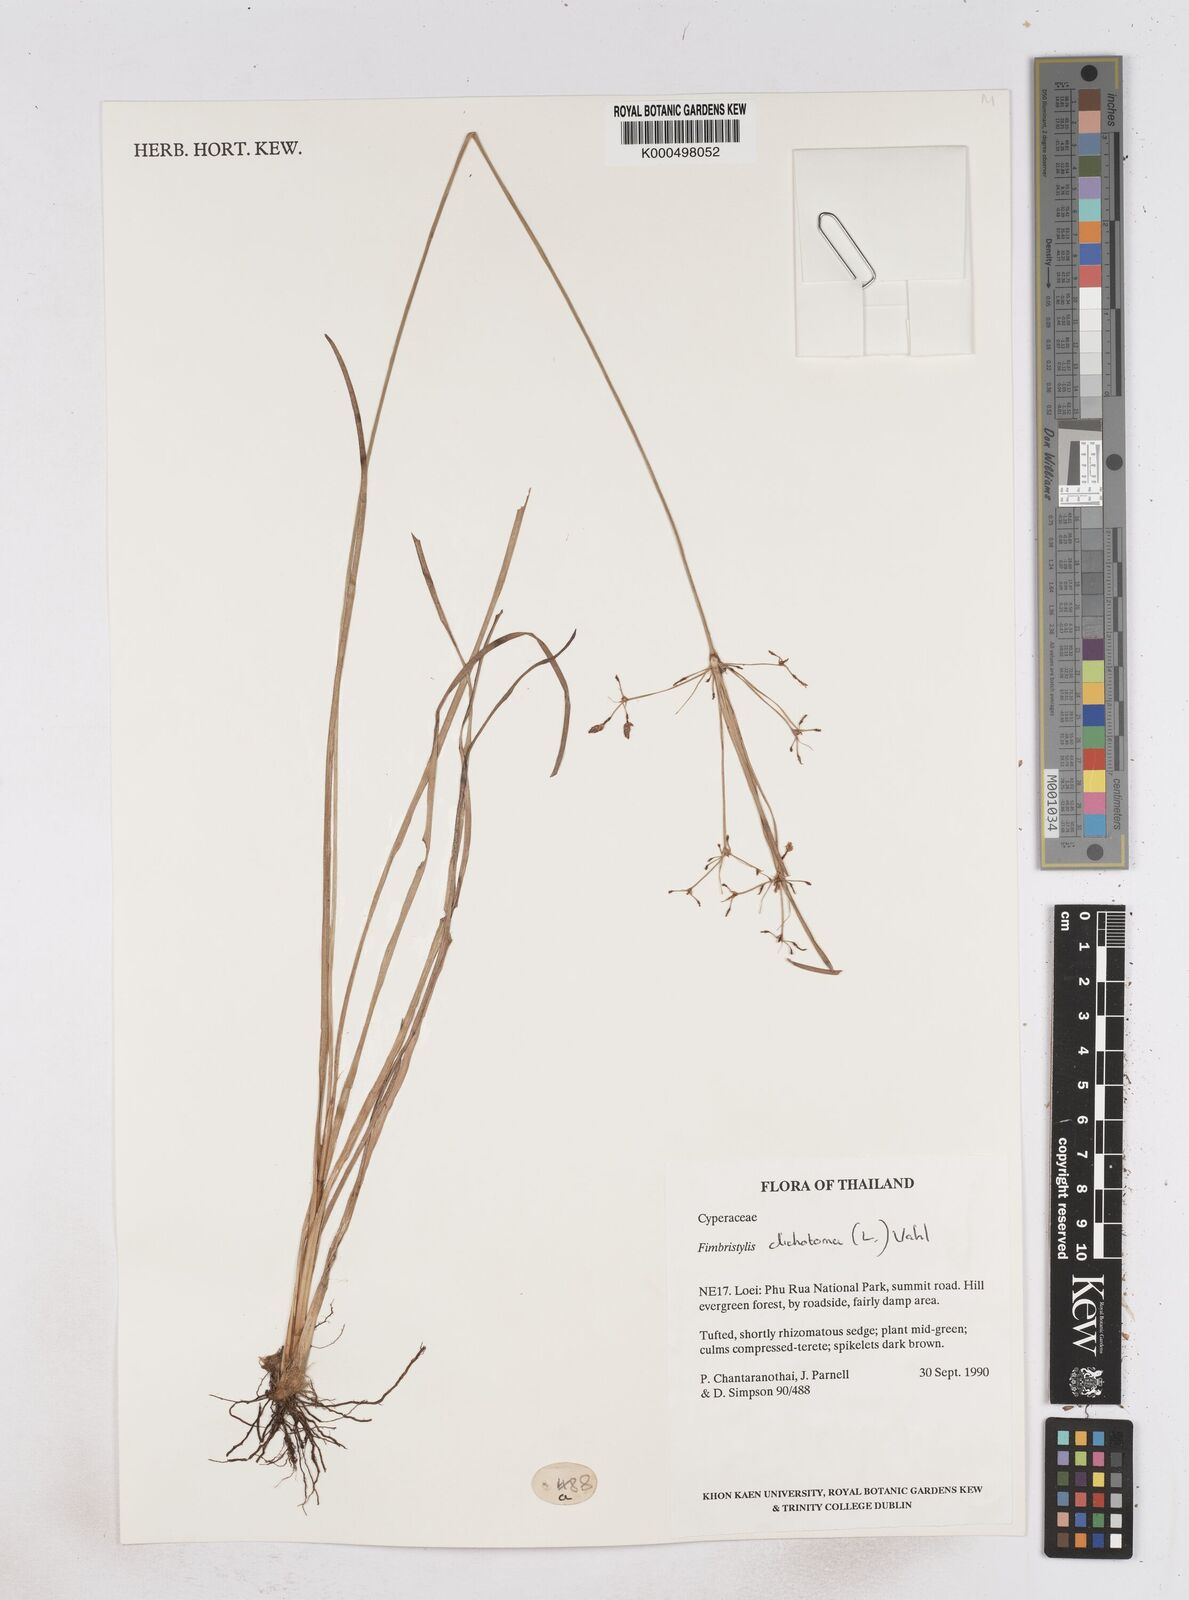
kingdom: Plantae
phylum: Tracheophyta
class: Liliopsida
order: Poales
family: Cyperaceae
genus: Fimbristylis
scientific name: Fimbristylis dichotoma
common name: Forked fimbry
